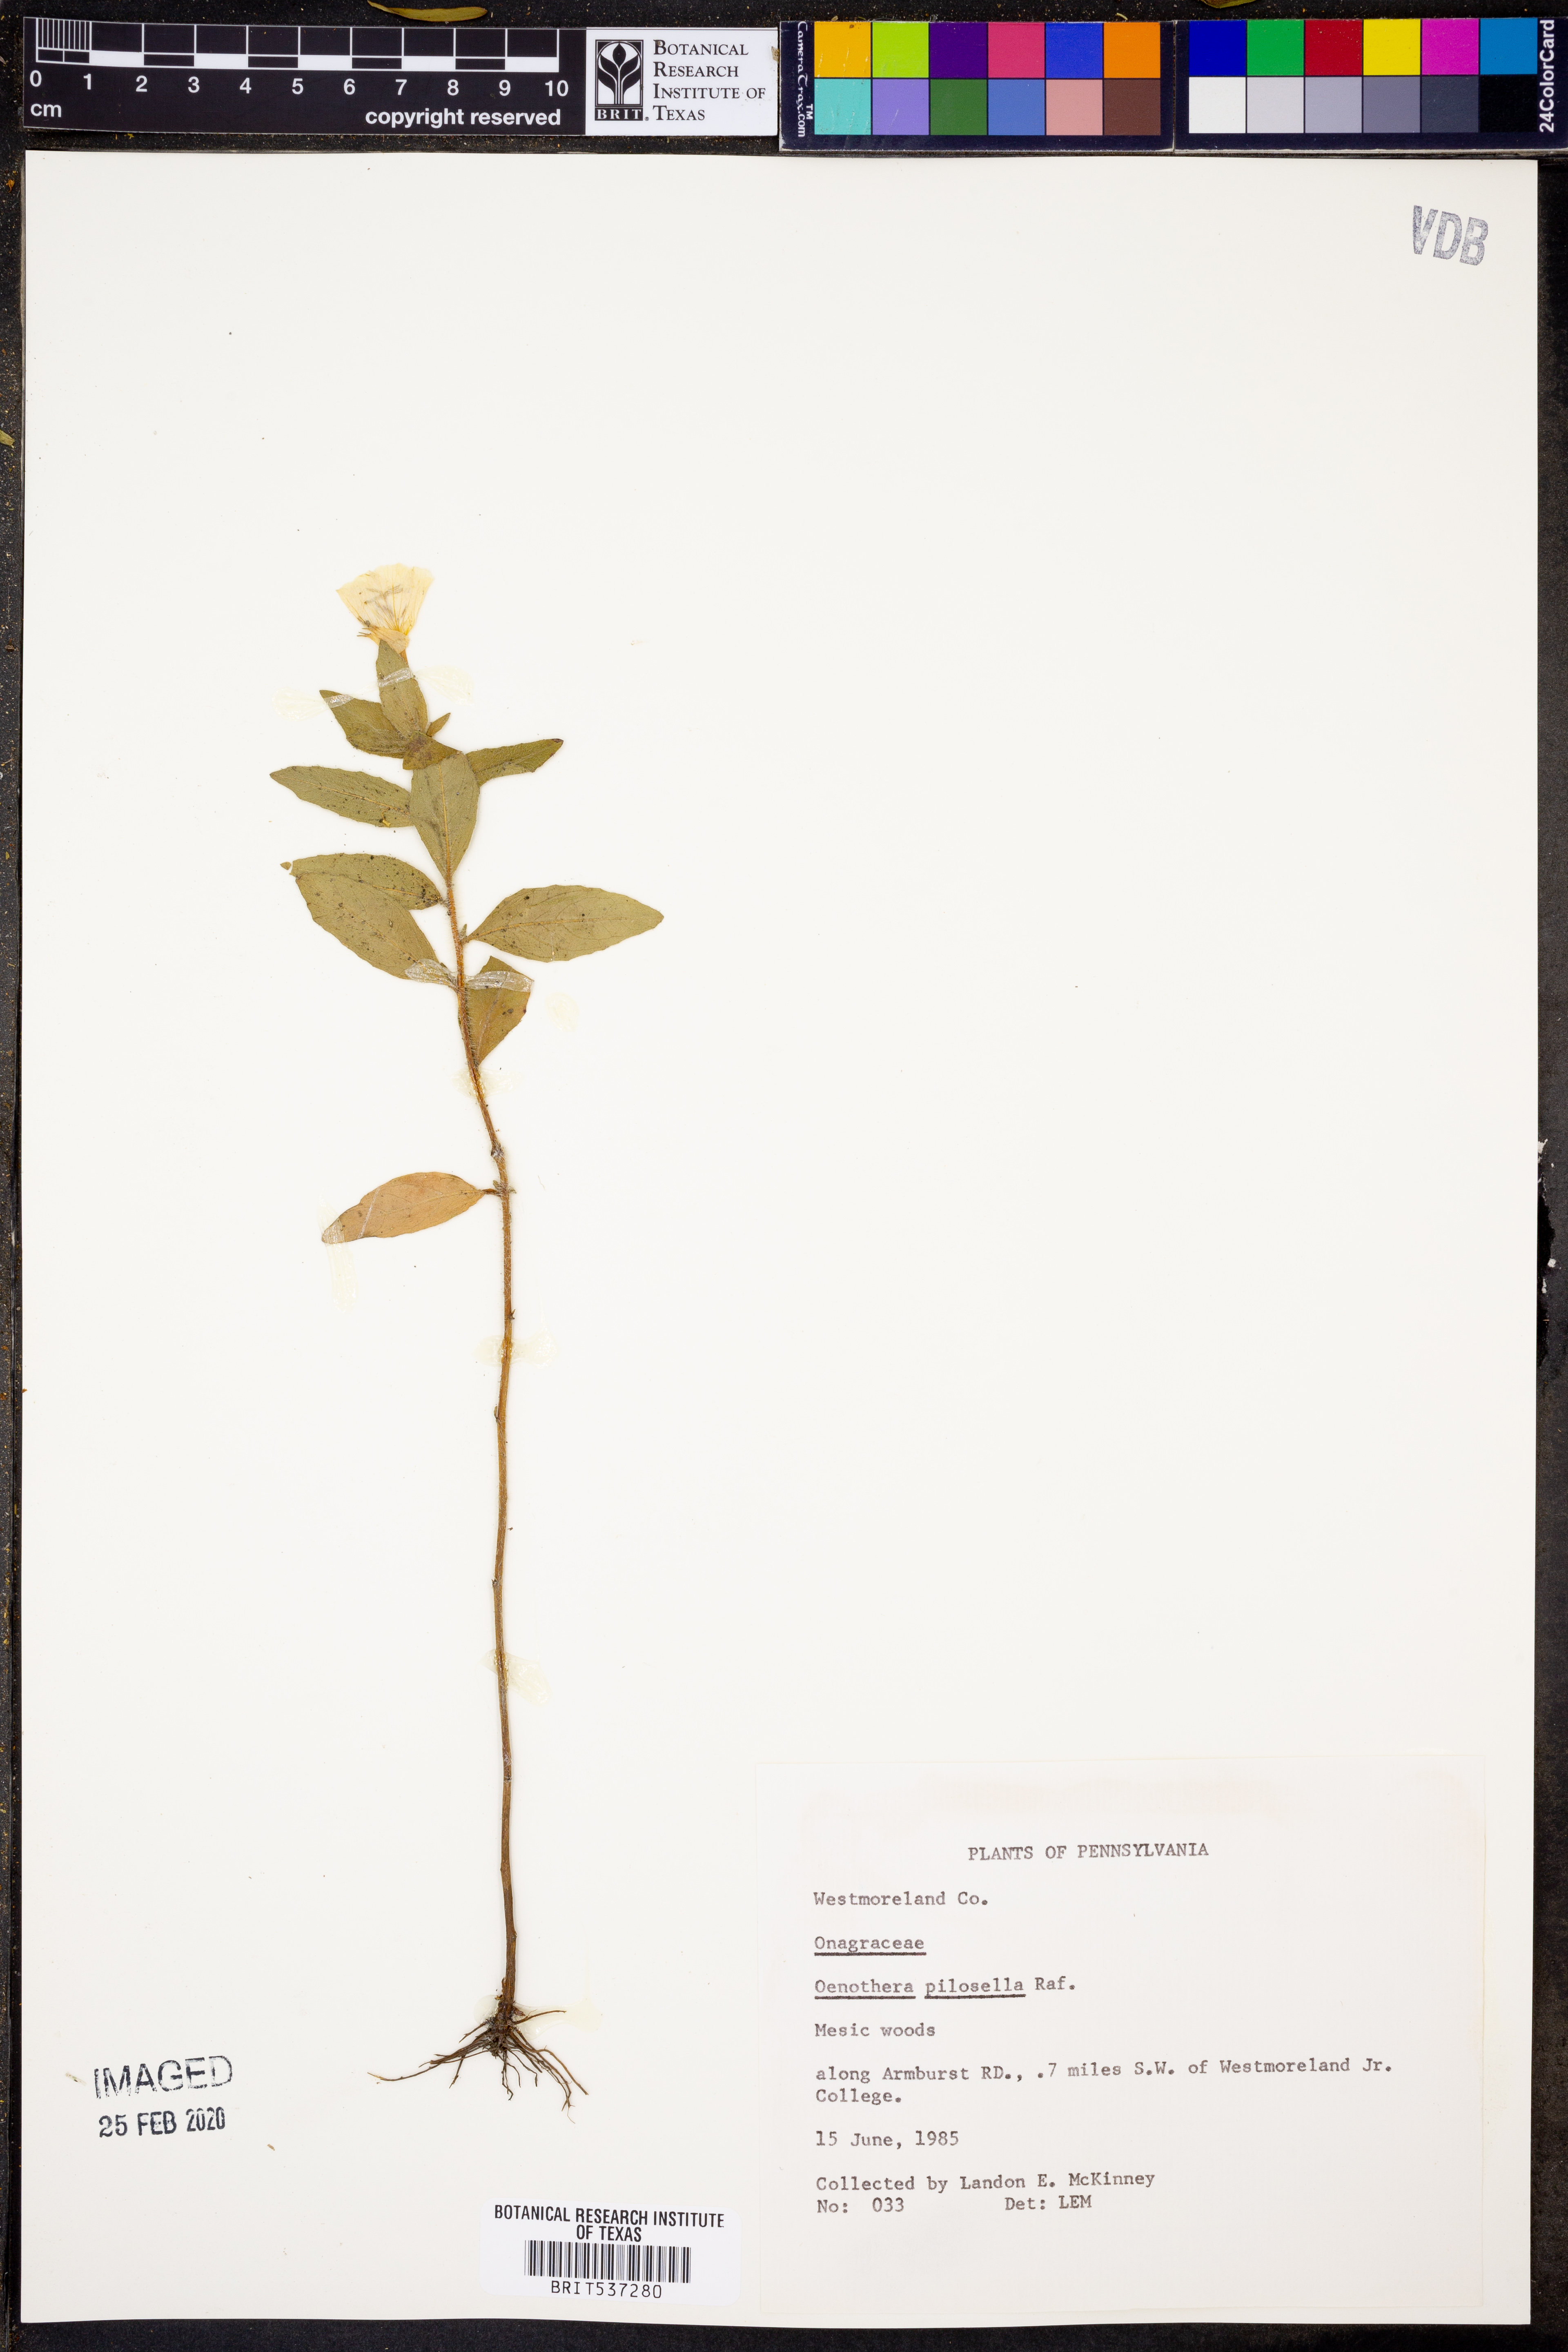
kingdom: Plantae
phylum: Tracheophyta
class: Magnoliopsida
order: Myrtales
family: Onagraceae
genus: Oenothera
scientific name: Oenothera pilosella
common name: Finely-pilose evening-primrose
